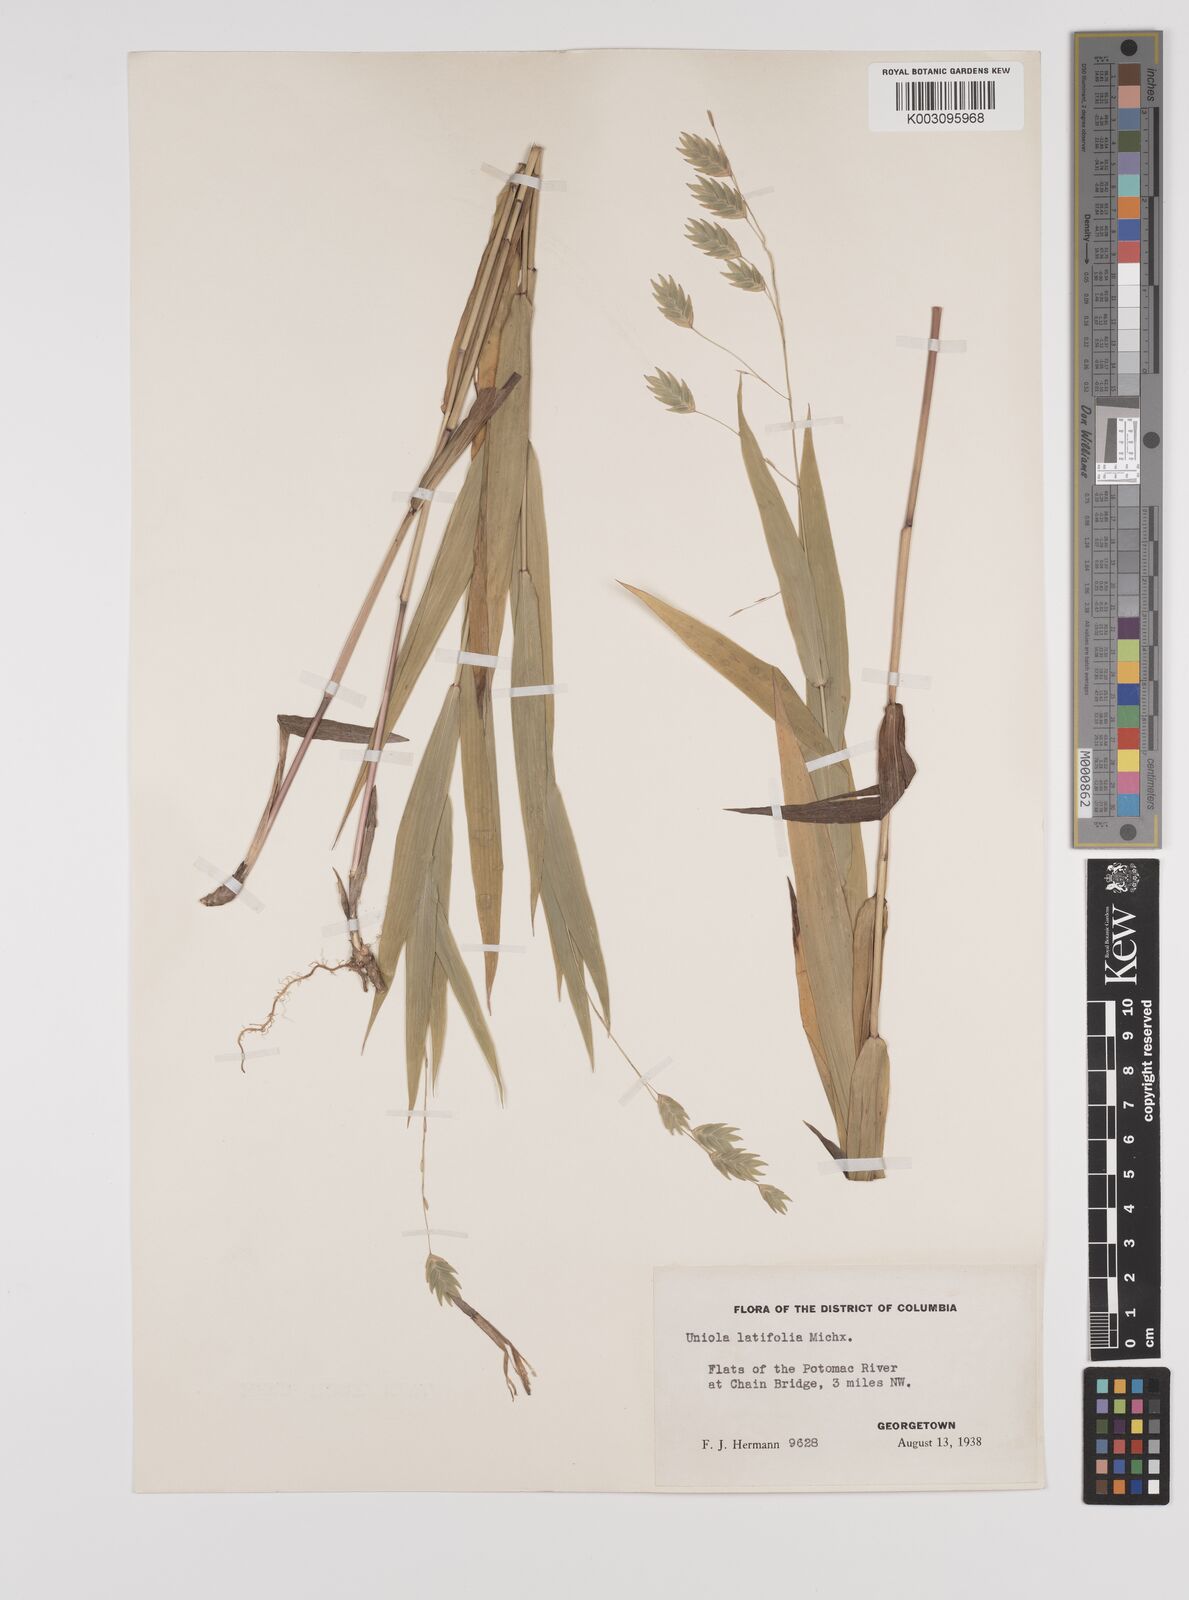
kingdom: Plantae
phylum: Tracheophyta
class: Liliopsida
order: Poales
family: Poaceae
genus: Chasmanthium
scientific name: Chasmanthium latifolium
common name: Broad-leaved chasmanthium
